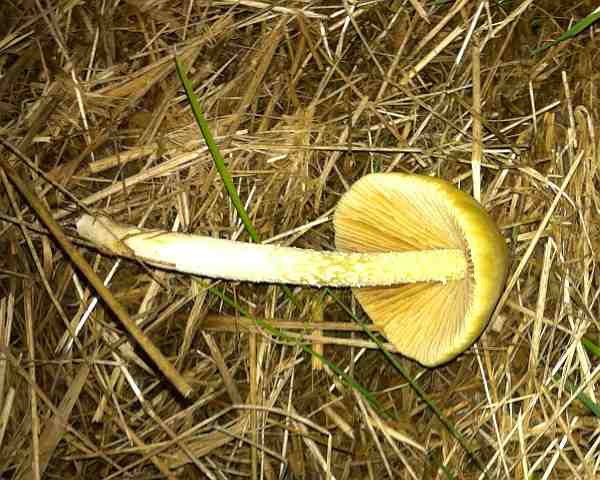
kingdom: Fungi
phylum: Basidiomycota
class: Agaricomycetes
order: Agaricales
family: Bolbitiaceae
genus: Bolbitius
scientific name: Bolbitius titubans
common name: almindelig gulhat
